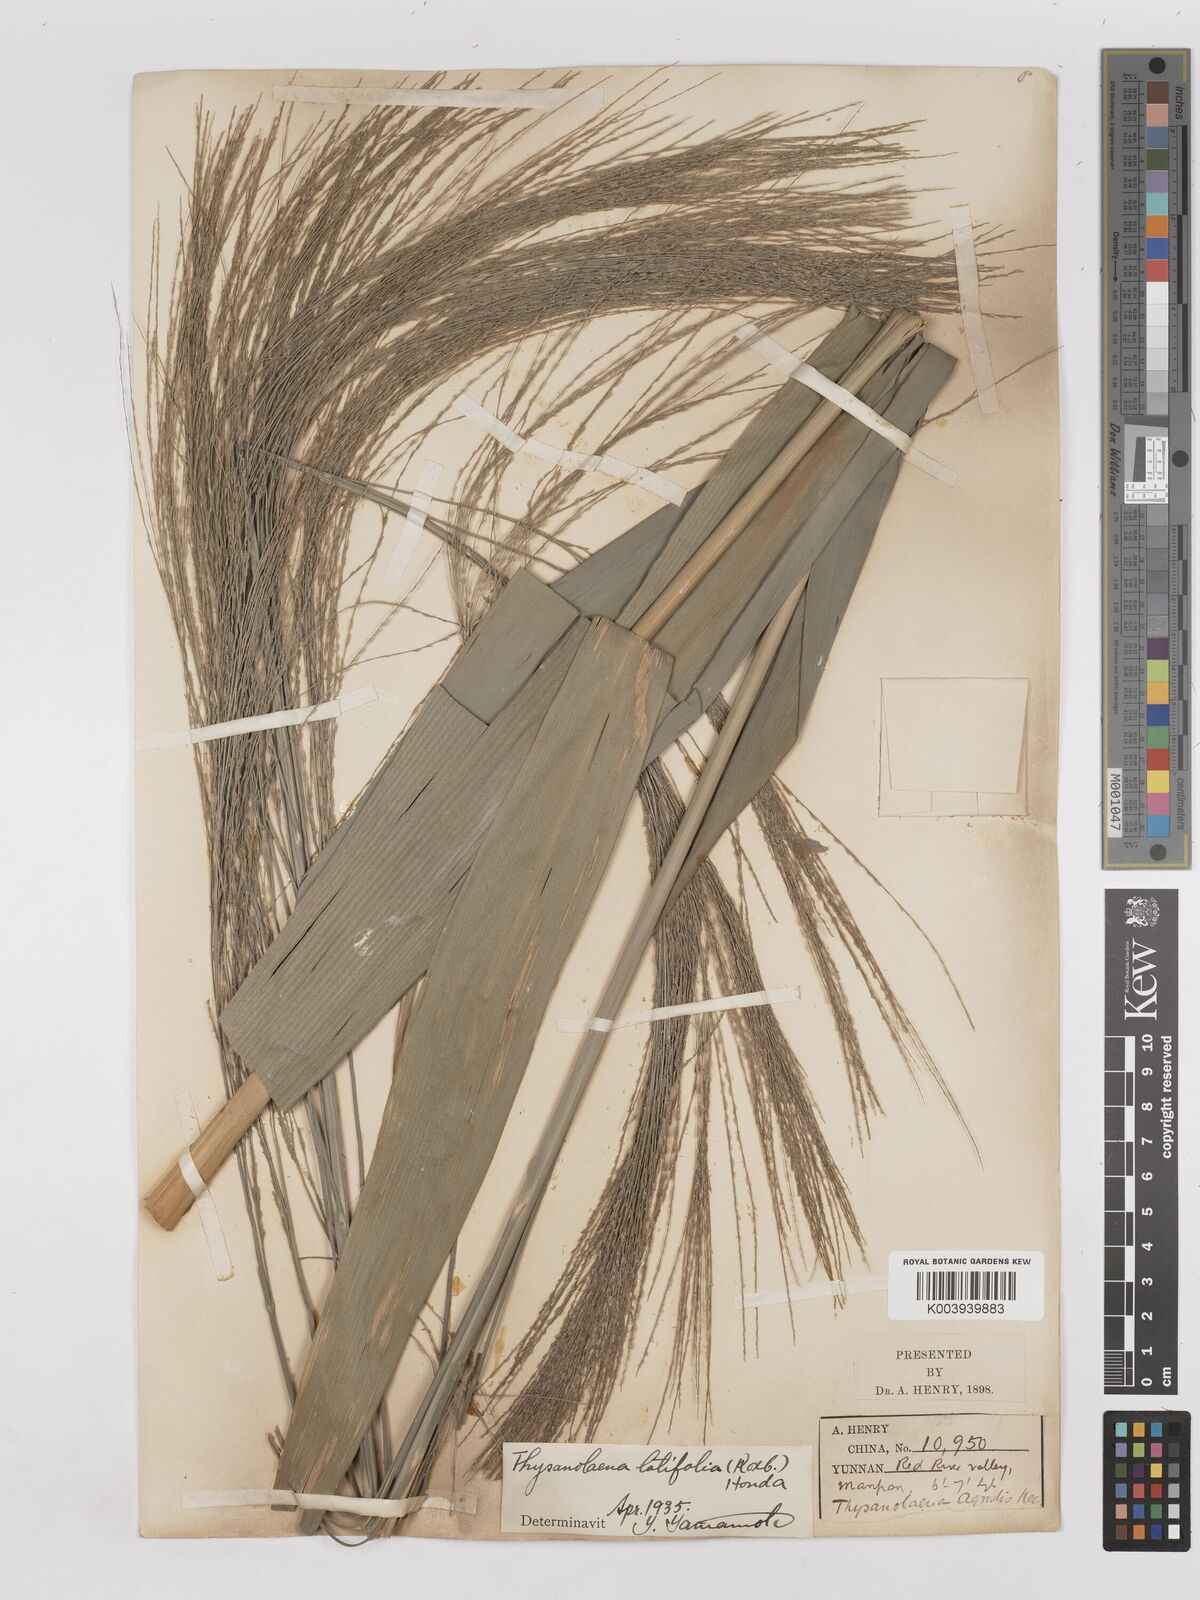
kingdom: Plantae
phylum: Tracheophyta
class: Liliopsida
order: Poales
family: Poaceae
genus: Thysanolaena
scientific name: Thysanolaena latifolia
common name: Tiger grass
